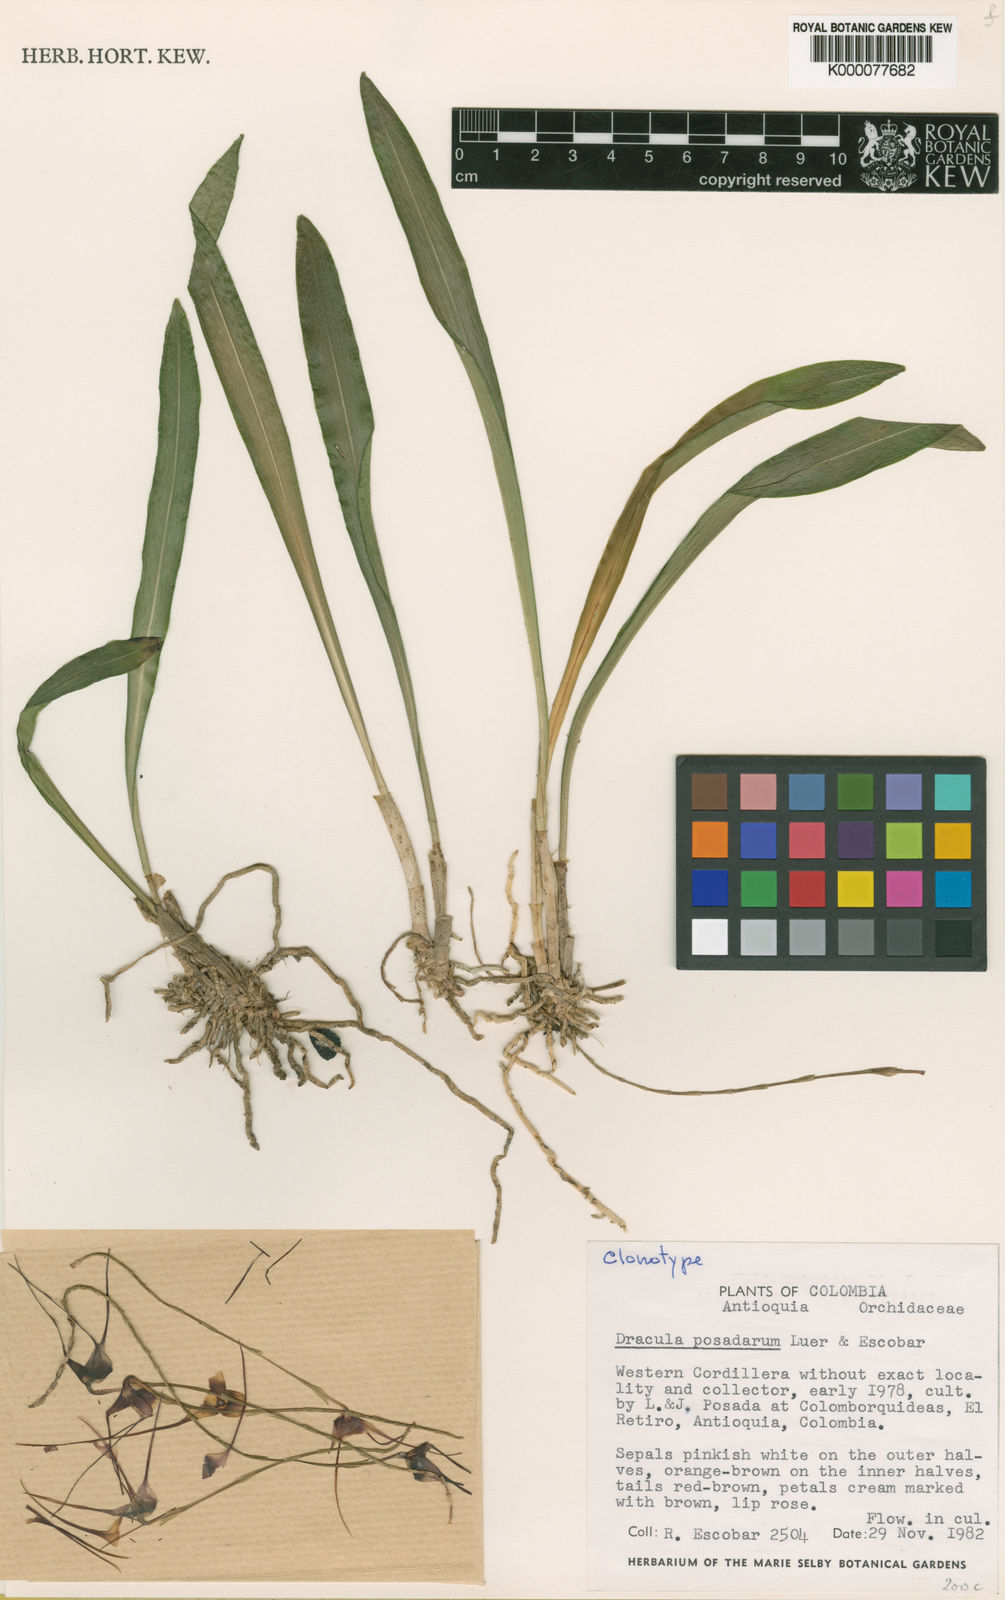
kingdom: Plantae
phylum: Tracheophyta
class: Liliopsida
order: Asparagales
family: Orchidaceae
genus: Dracula
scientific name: Dracula posadarum
